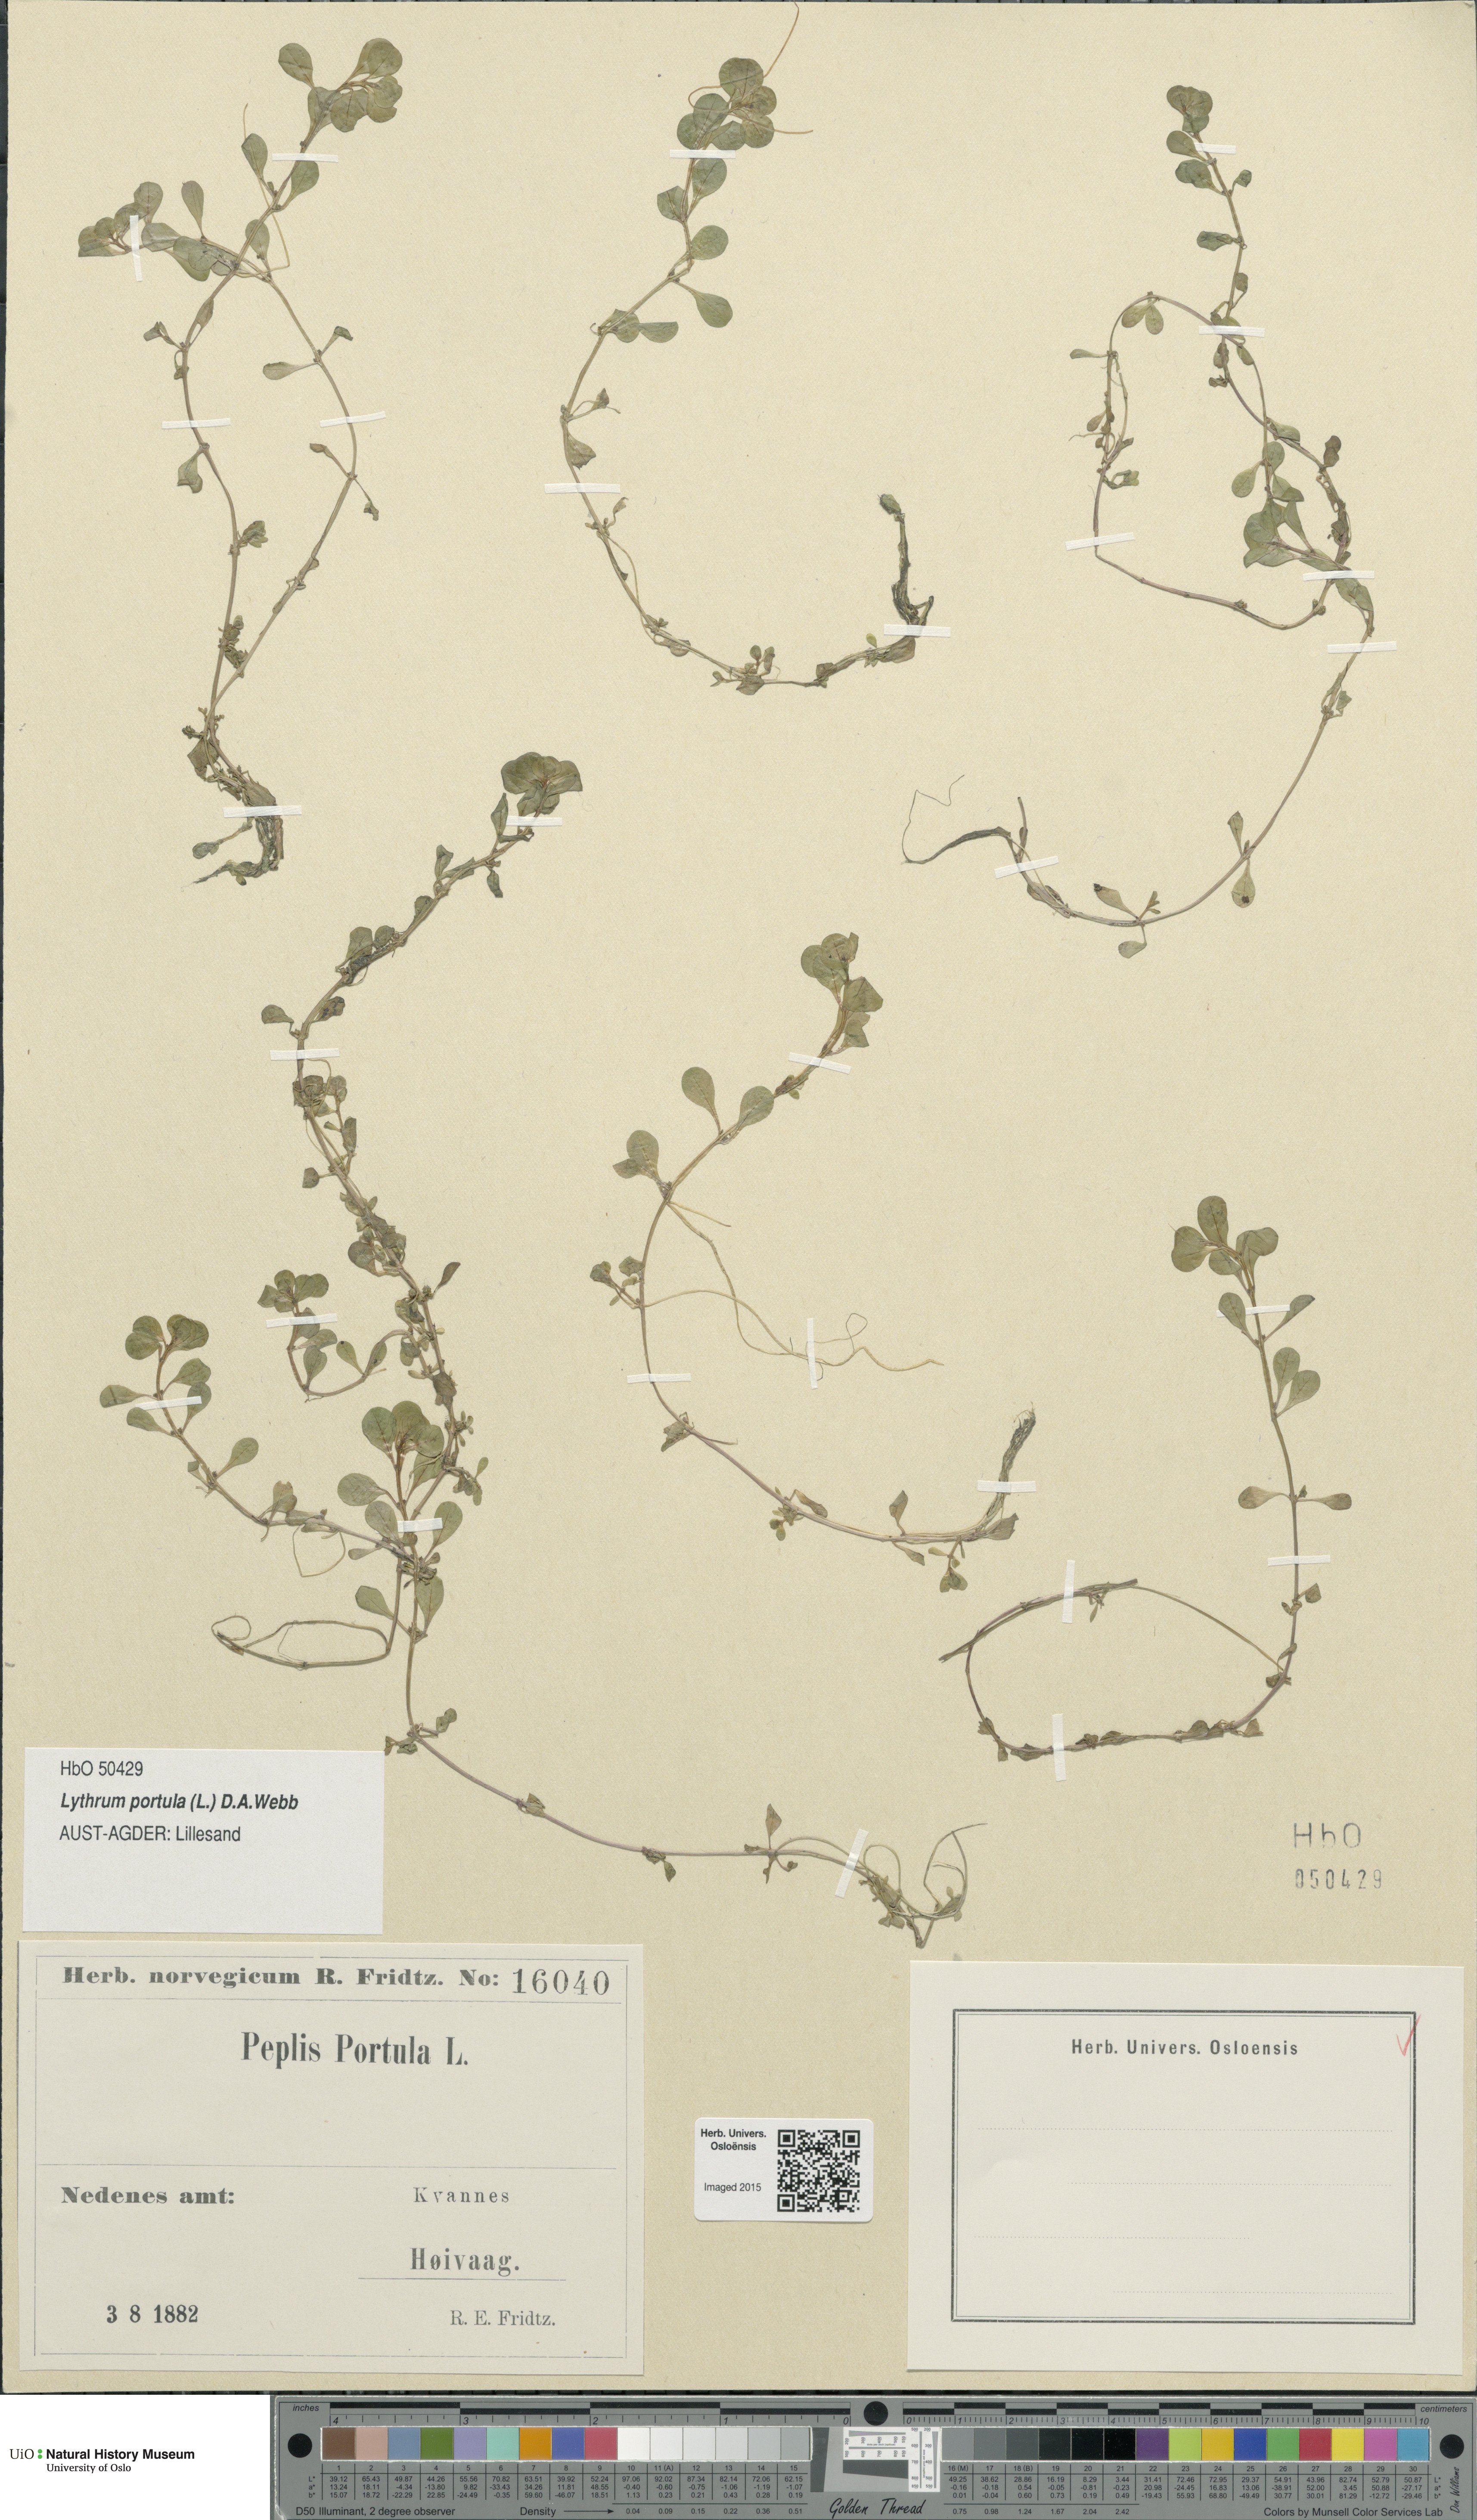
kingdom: Plantae
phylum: Tracheophyta
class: Magnoliopsida
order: Myrtales
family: Lythraceae
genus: Lythrum
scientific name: Lythrum portula
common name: Water purslane
